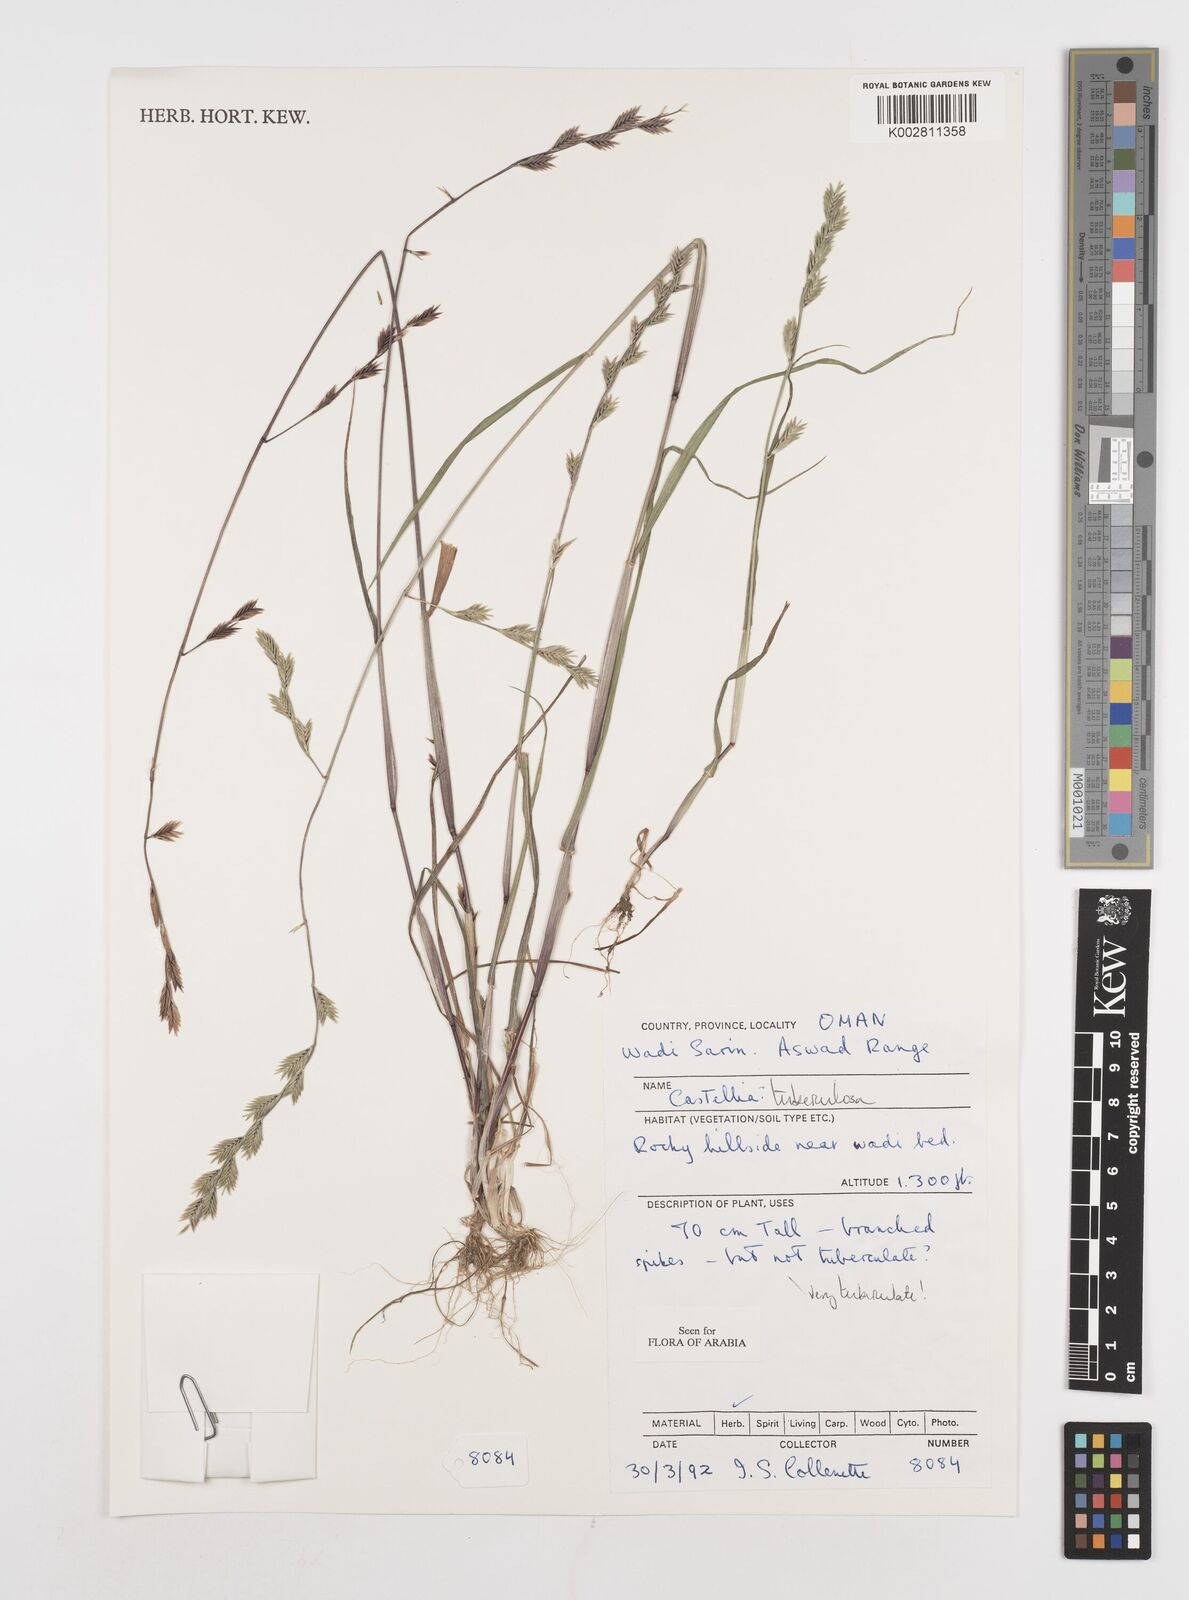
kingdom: Plantae
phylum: Tracheophyta
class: Liliopsida
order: Poales
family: Poaceae
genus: Castellia
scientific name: Castellia tuberculosa
